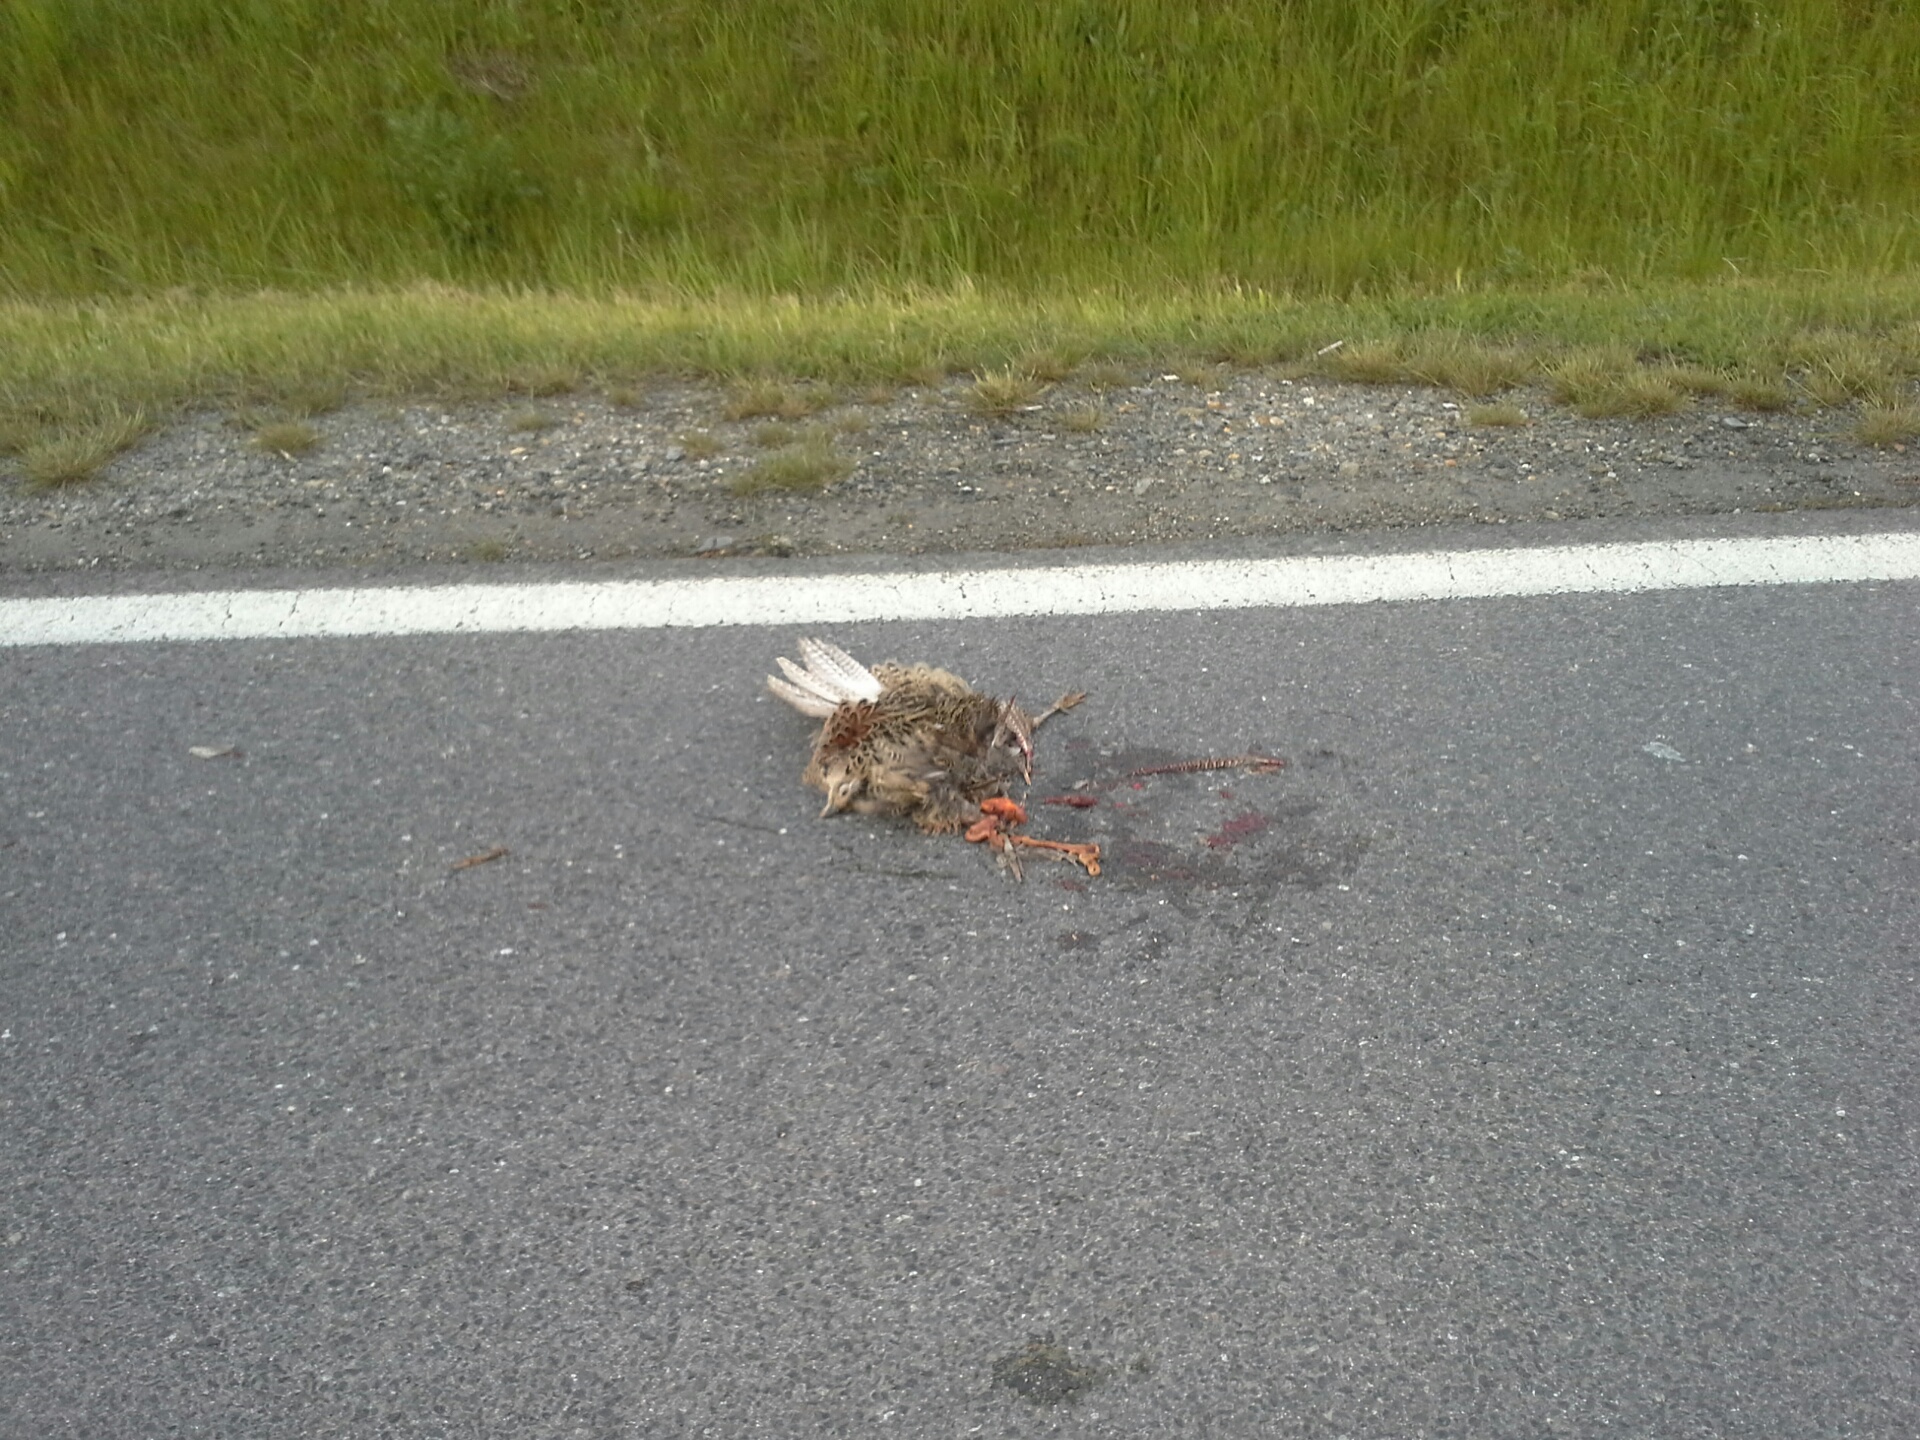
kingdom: Animalia
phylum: Chordata
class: Aves
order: Galliformes
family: Phasianidae
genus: Phasianus
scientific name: Phasianus colchicus
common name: Common pheasant
